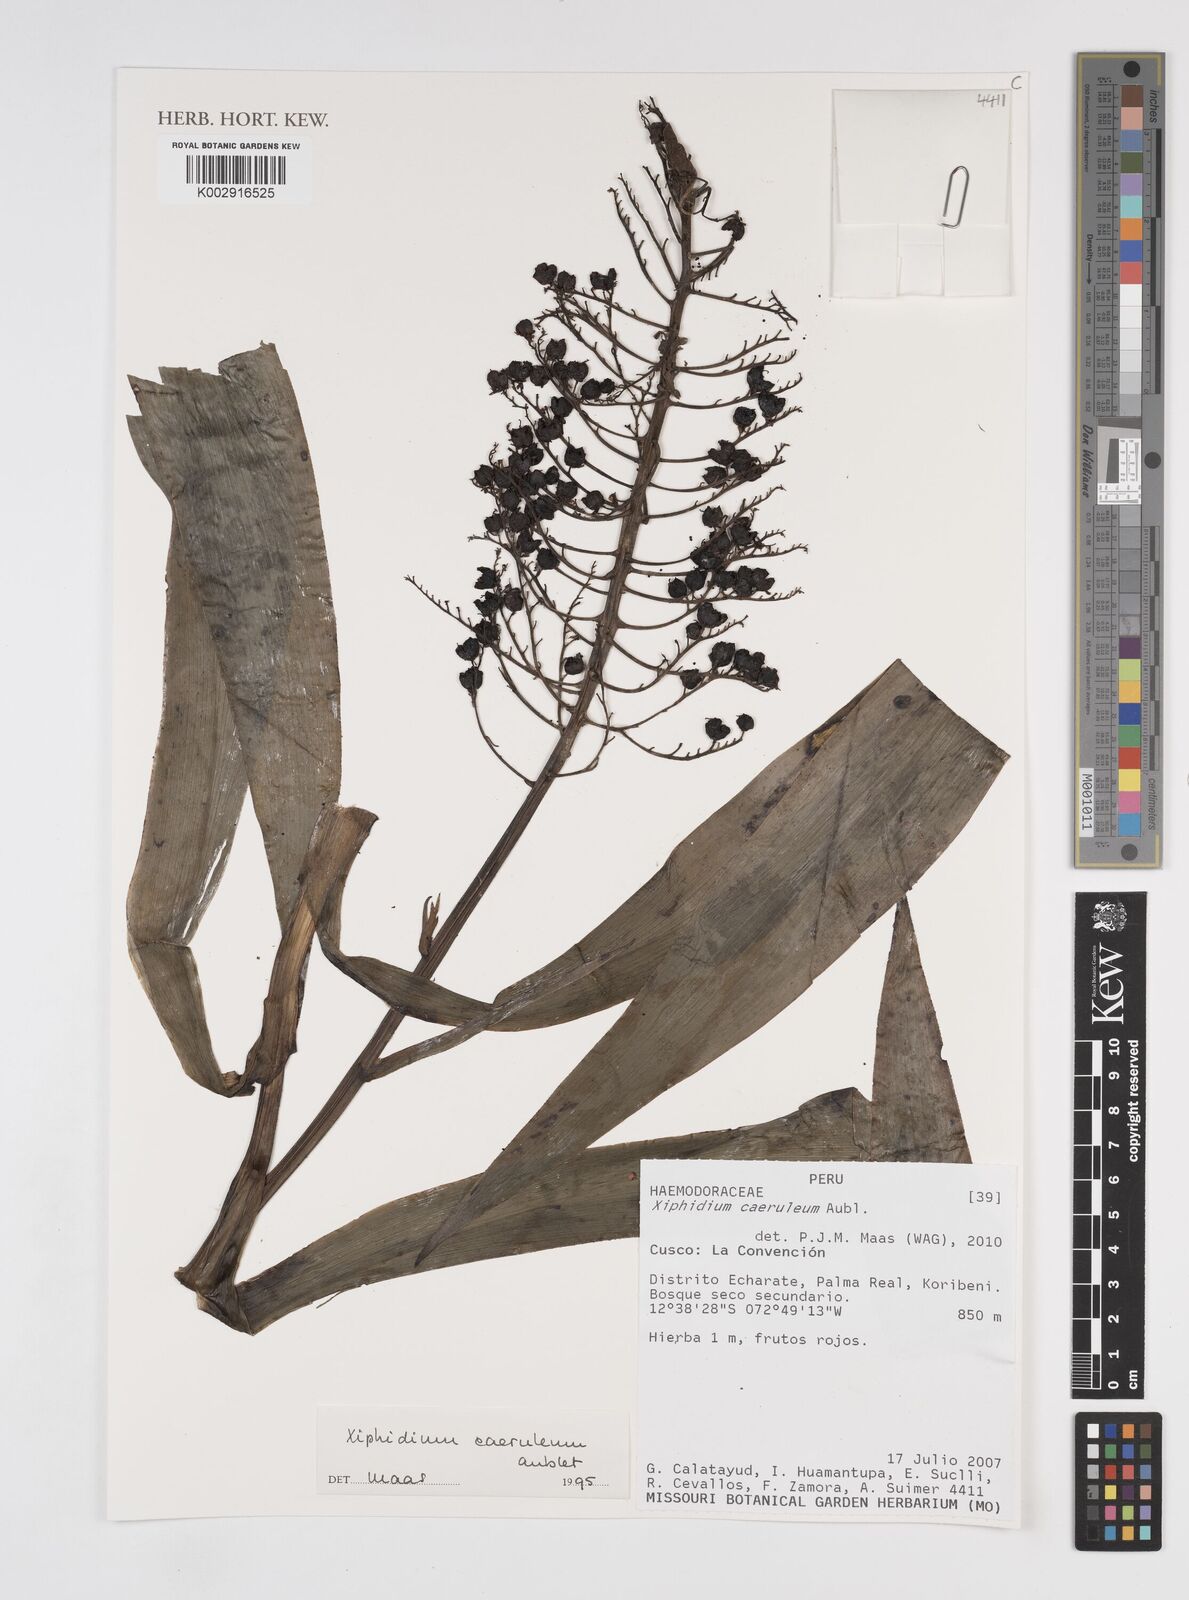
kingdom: Plantae
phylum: Tracheophyta
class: Liliopsida
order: Commelinales
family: Haemodoraceae
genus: Xiphidium
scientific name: Xiphidium caeruleum
